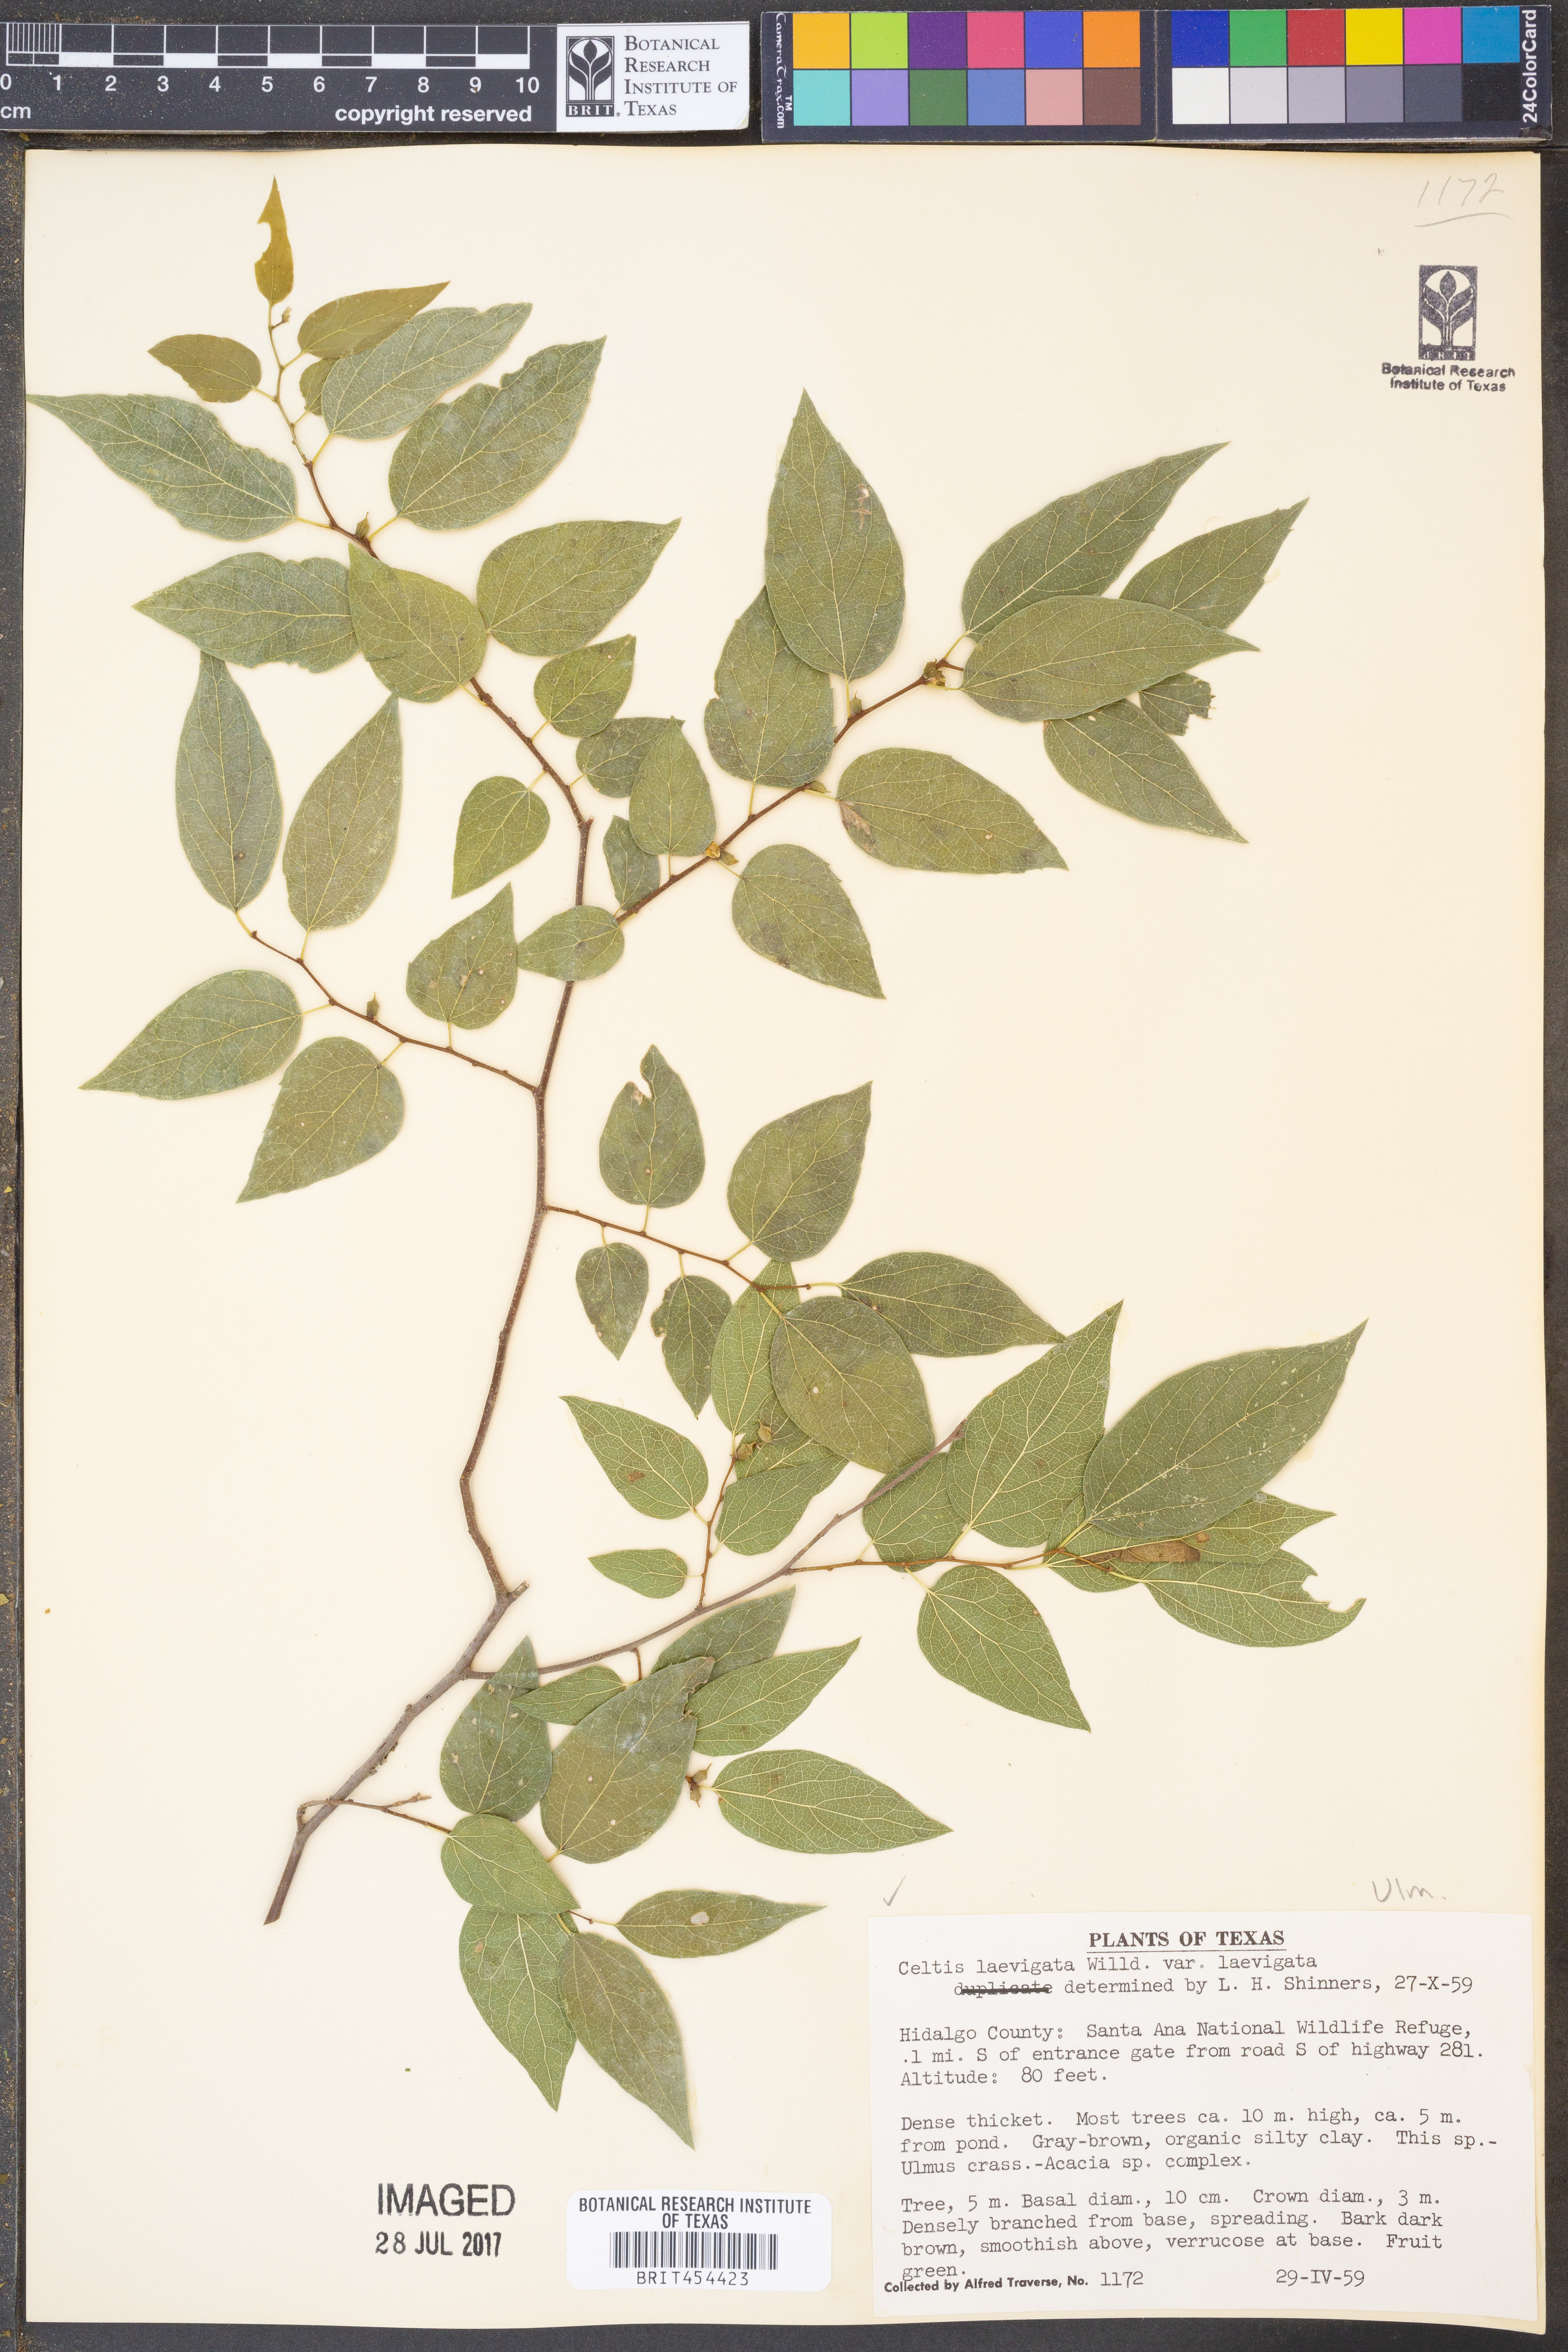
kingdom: Plantae
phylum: Tracheophyta
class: Magnoliopsida
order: Rosales
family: Cannabaceae
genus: Celtis
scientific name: Celtis laevigata
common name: Sugarberry
